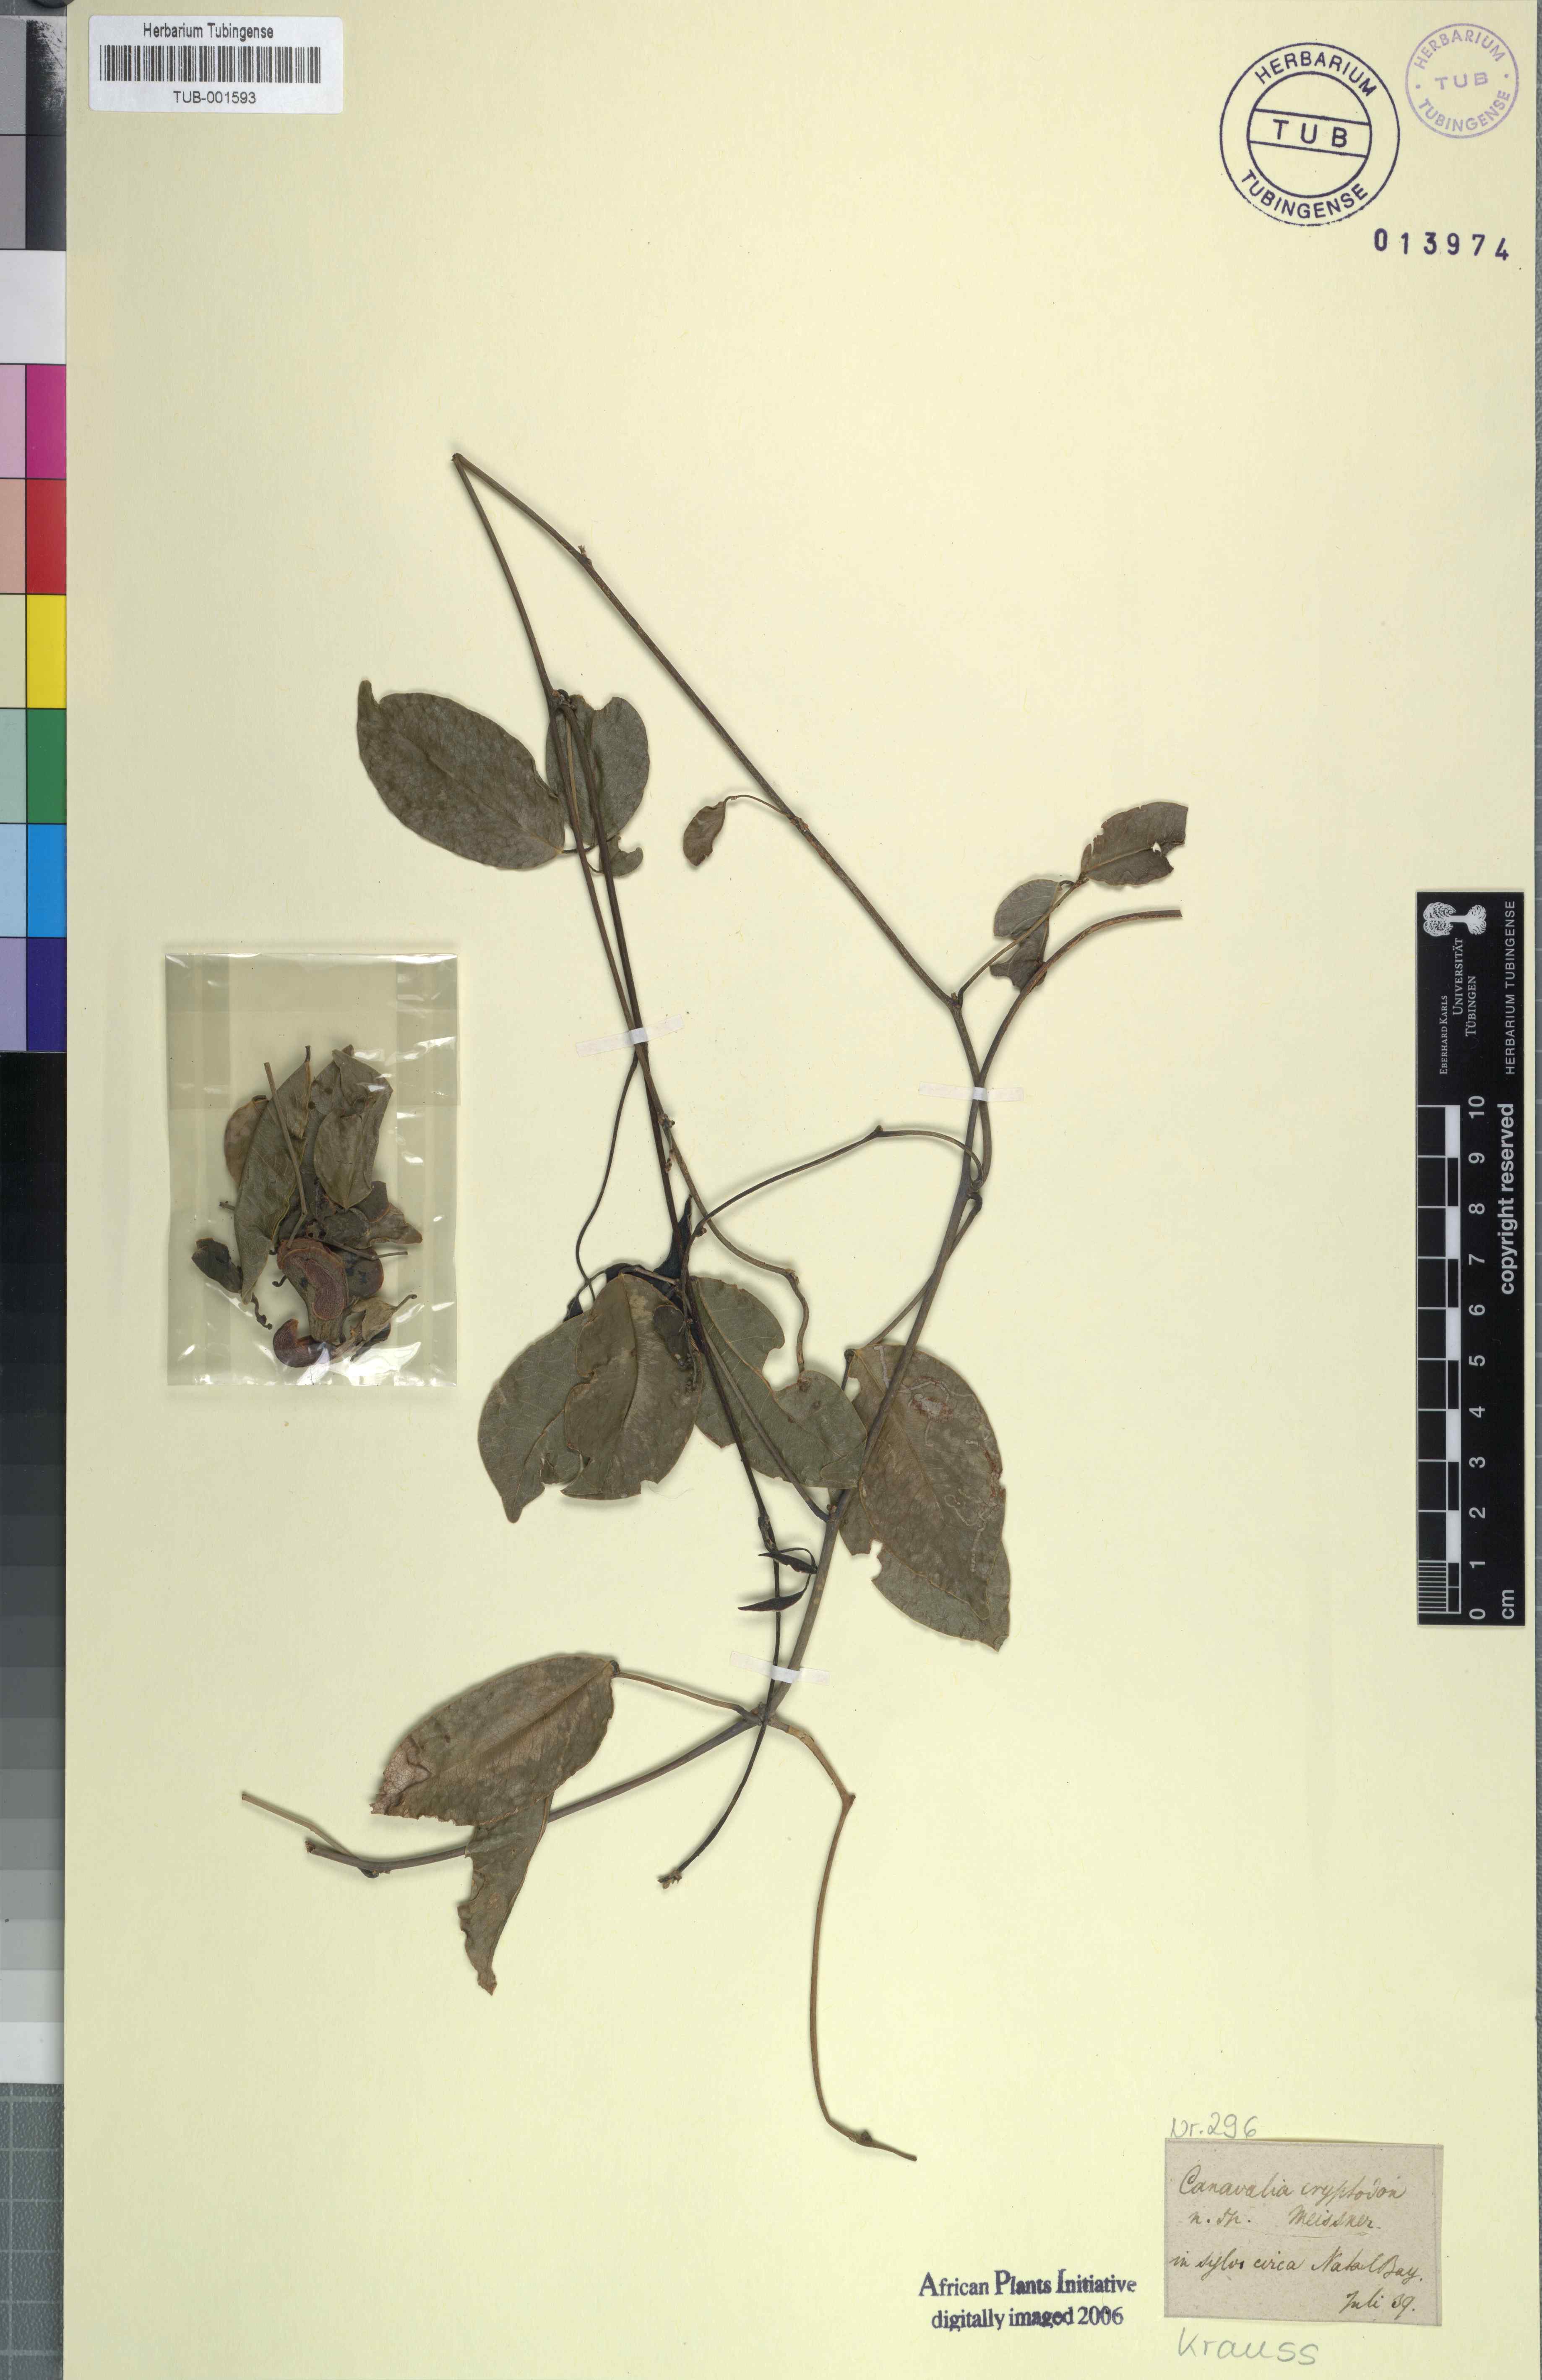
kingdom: Plantae
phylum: Tracheophyta
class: Magnoliopsida
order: Fabales
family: Fabaceae
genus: Canavalia
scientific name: Canavalia bonariensis
